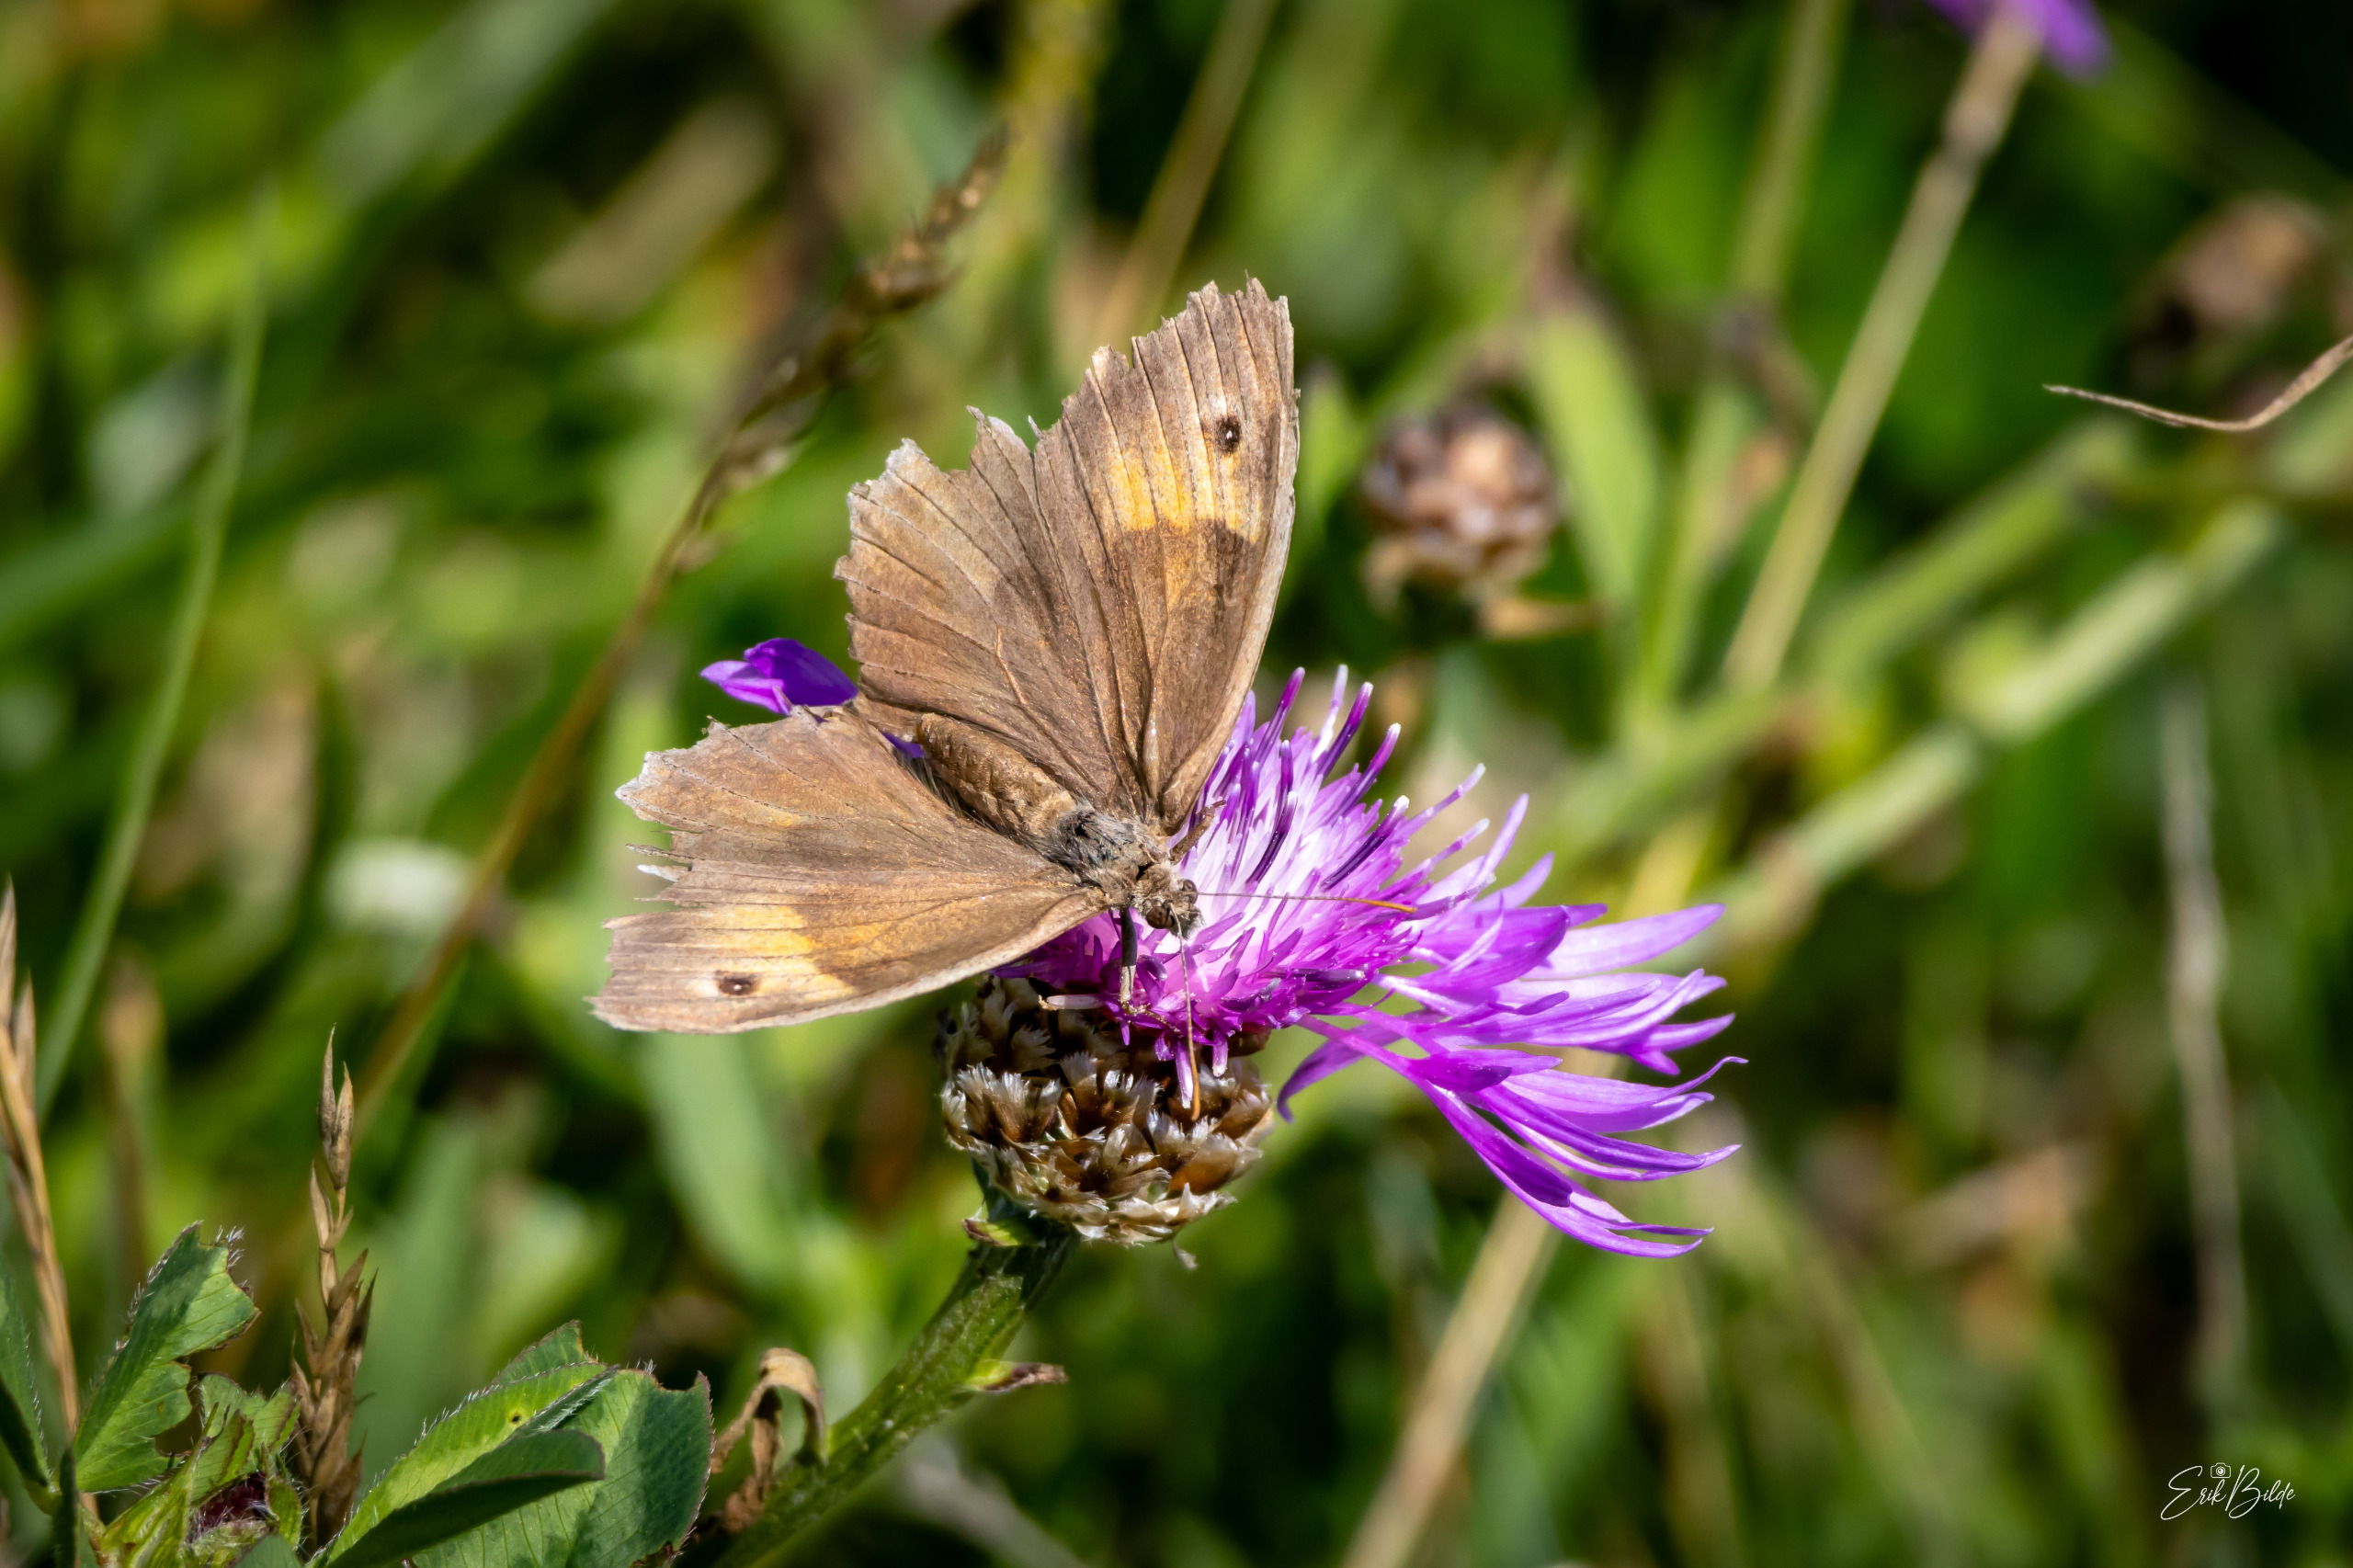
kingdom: Animalia
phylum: Arthropoda
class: Insecta
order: Lepidoptera
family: Nymphalidae
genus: Maniola
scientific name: Maniola jurtina
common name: Græsrandøje
